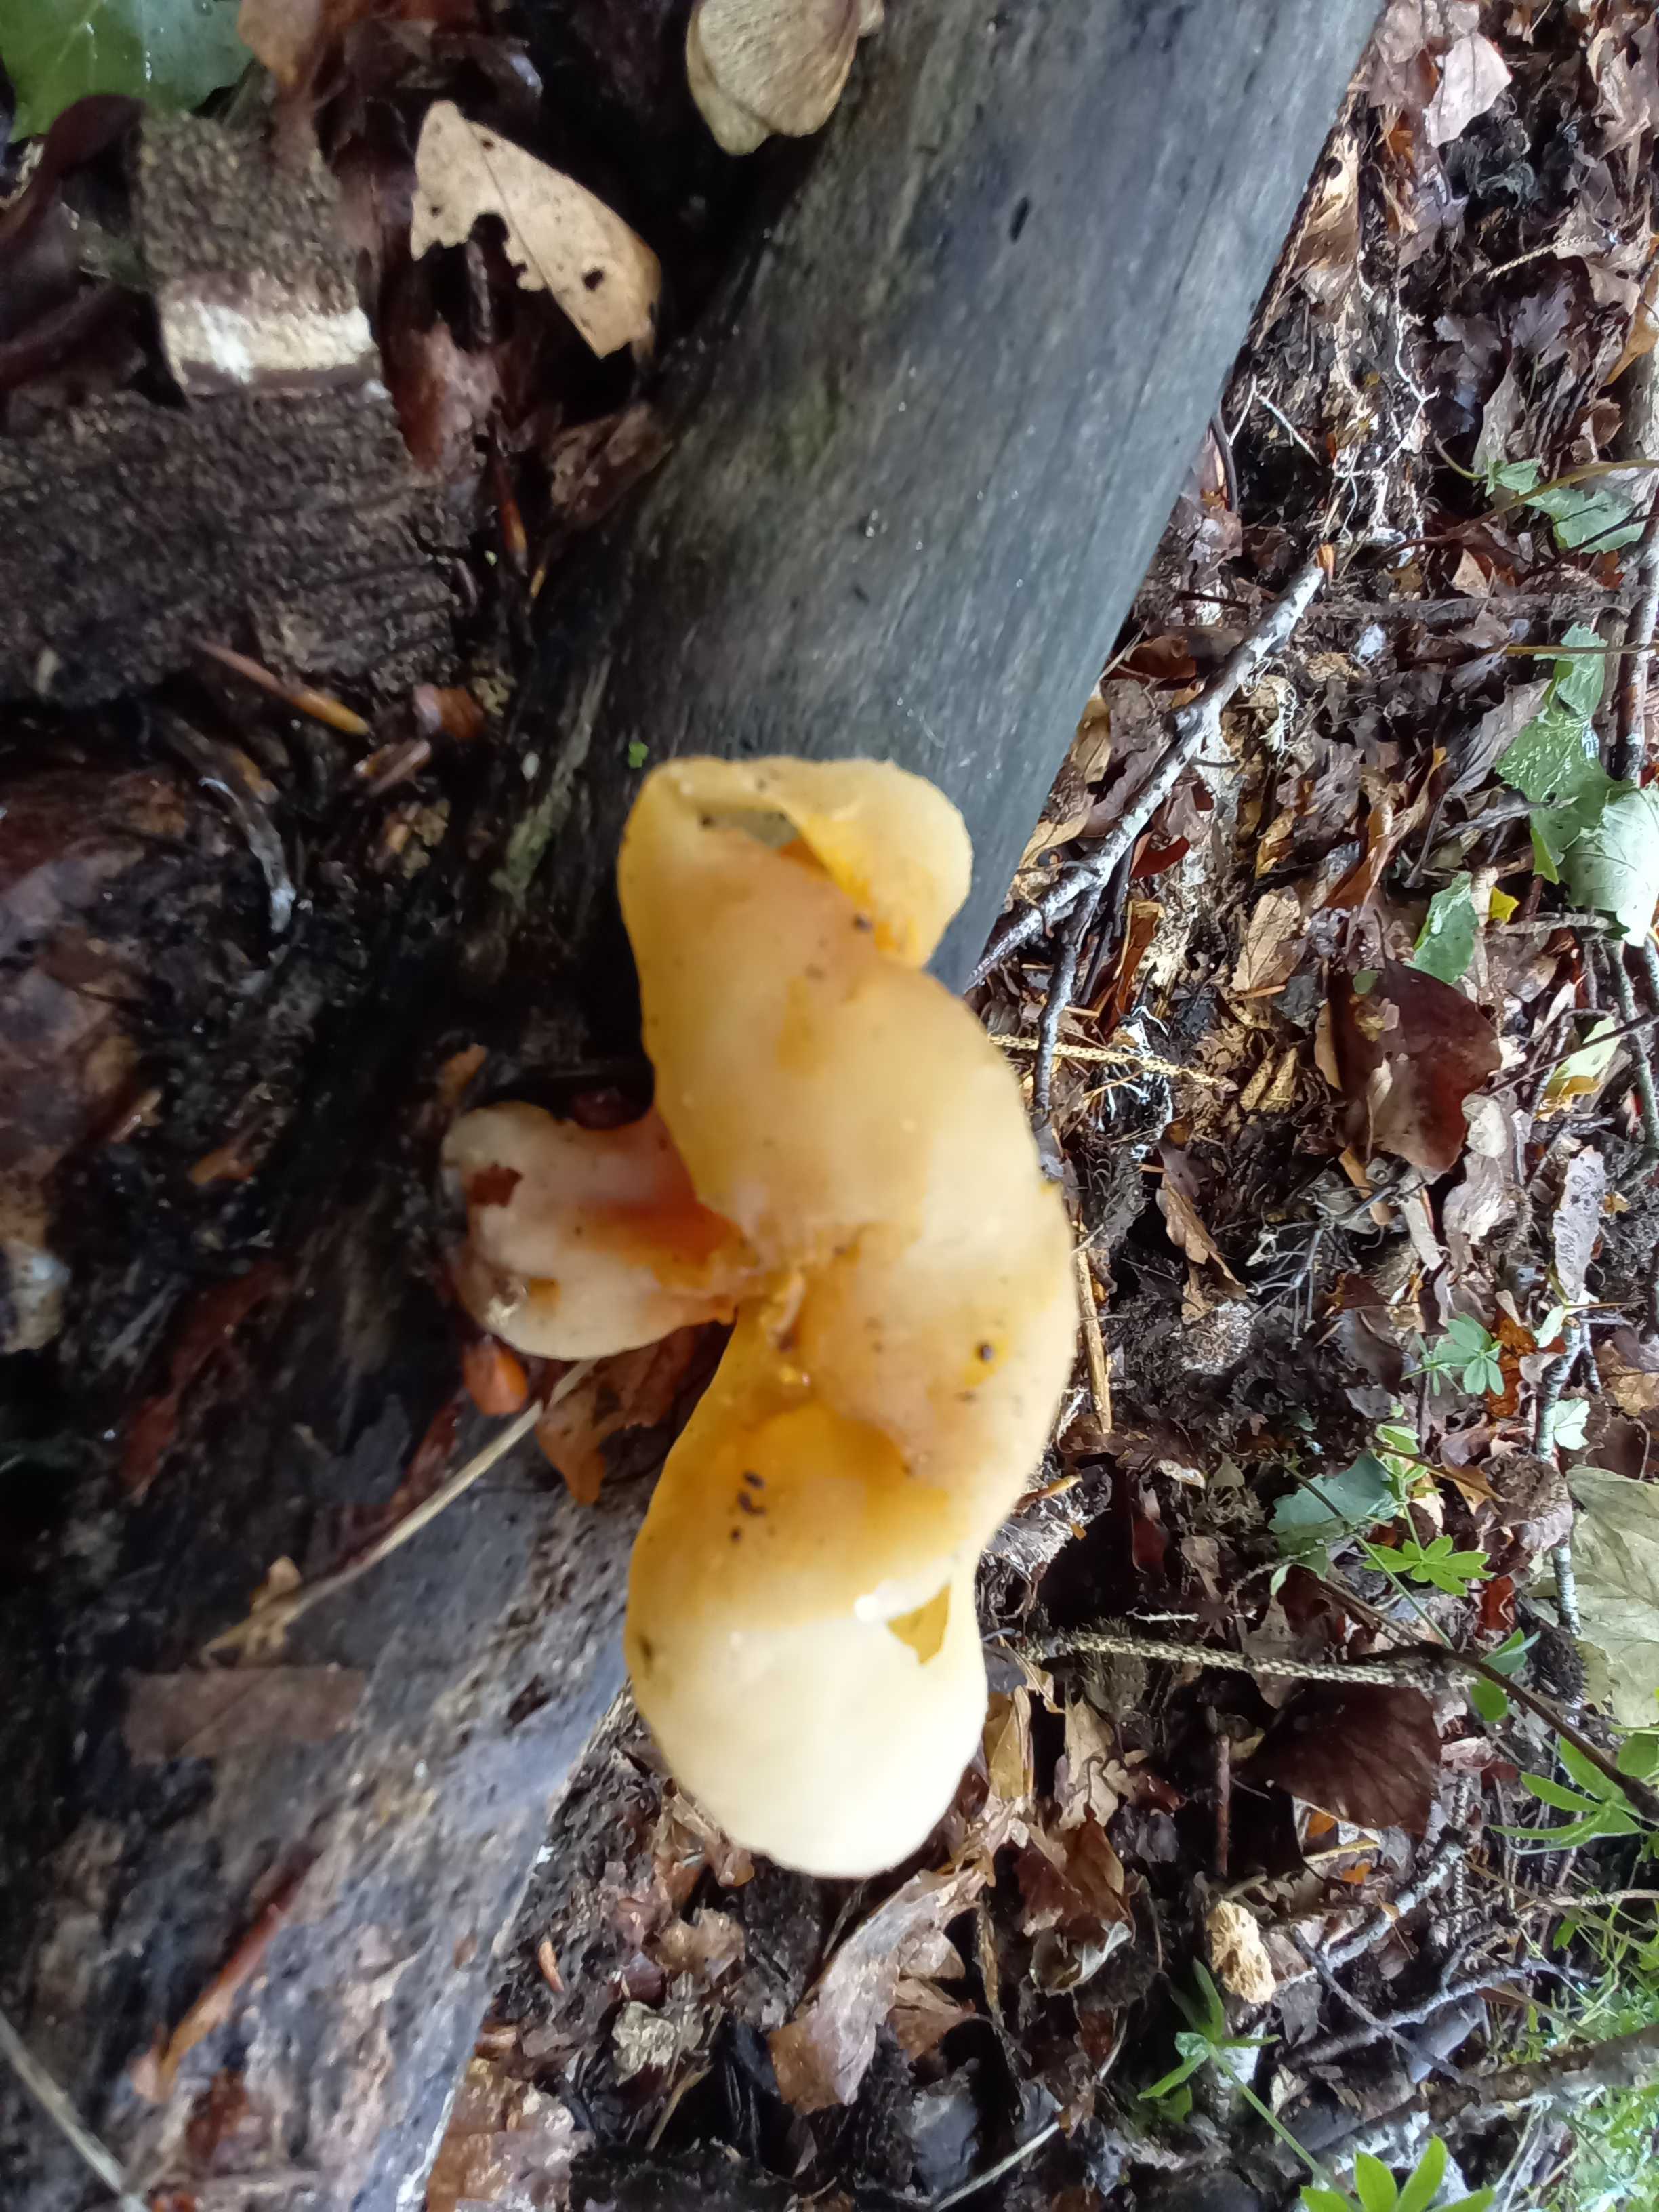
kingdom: Fungi
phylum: Ascomycota
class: Pezizomycetes
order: Pezizales
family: Pezizaceae
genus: Peziza
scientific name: Peziza varia
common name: Ved-bægersvamp
